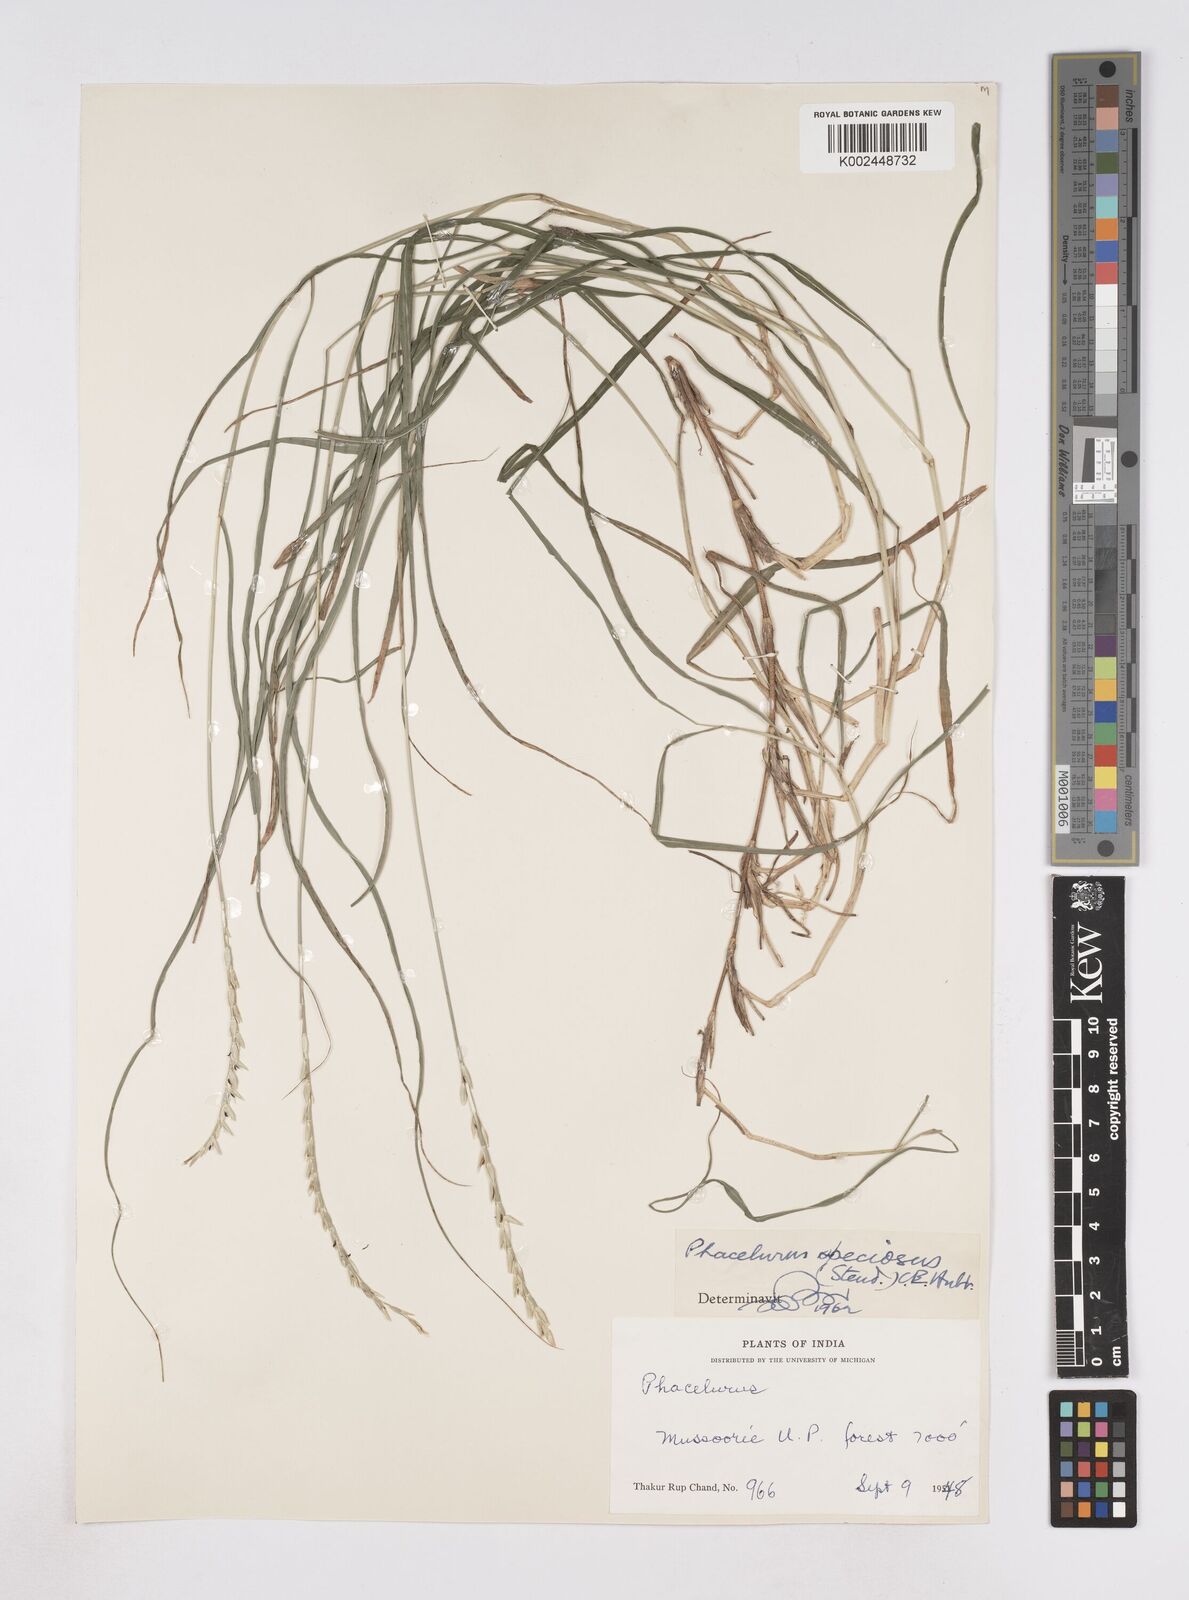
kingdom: Plantae
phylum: Tracheophyta
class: Liliopsida
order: Poales
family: Poaceae
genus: Phacelurus
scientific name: Phacelurus speciosus
